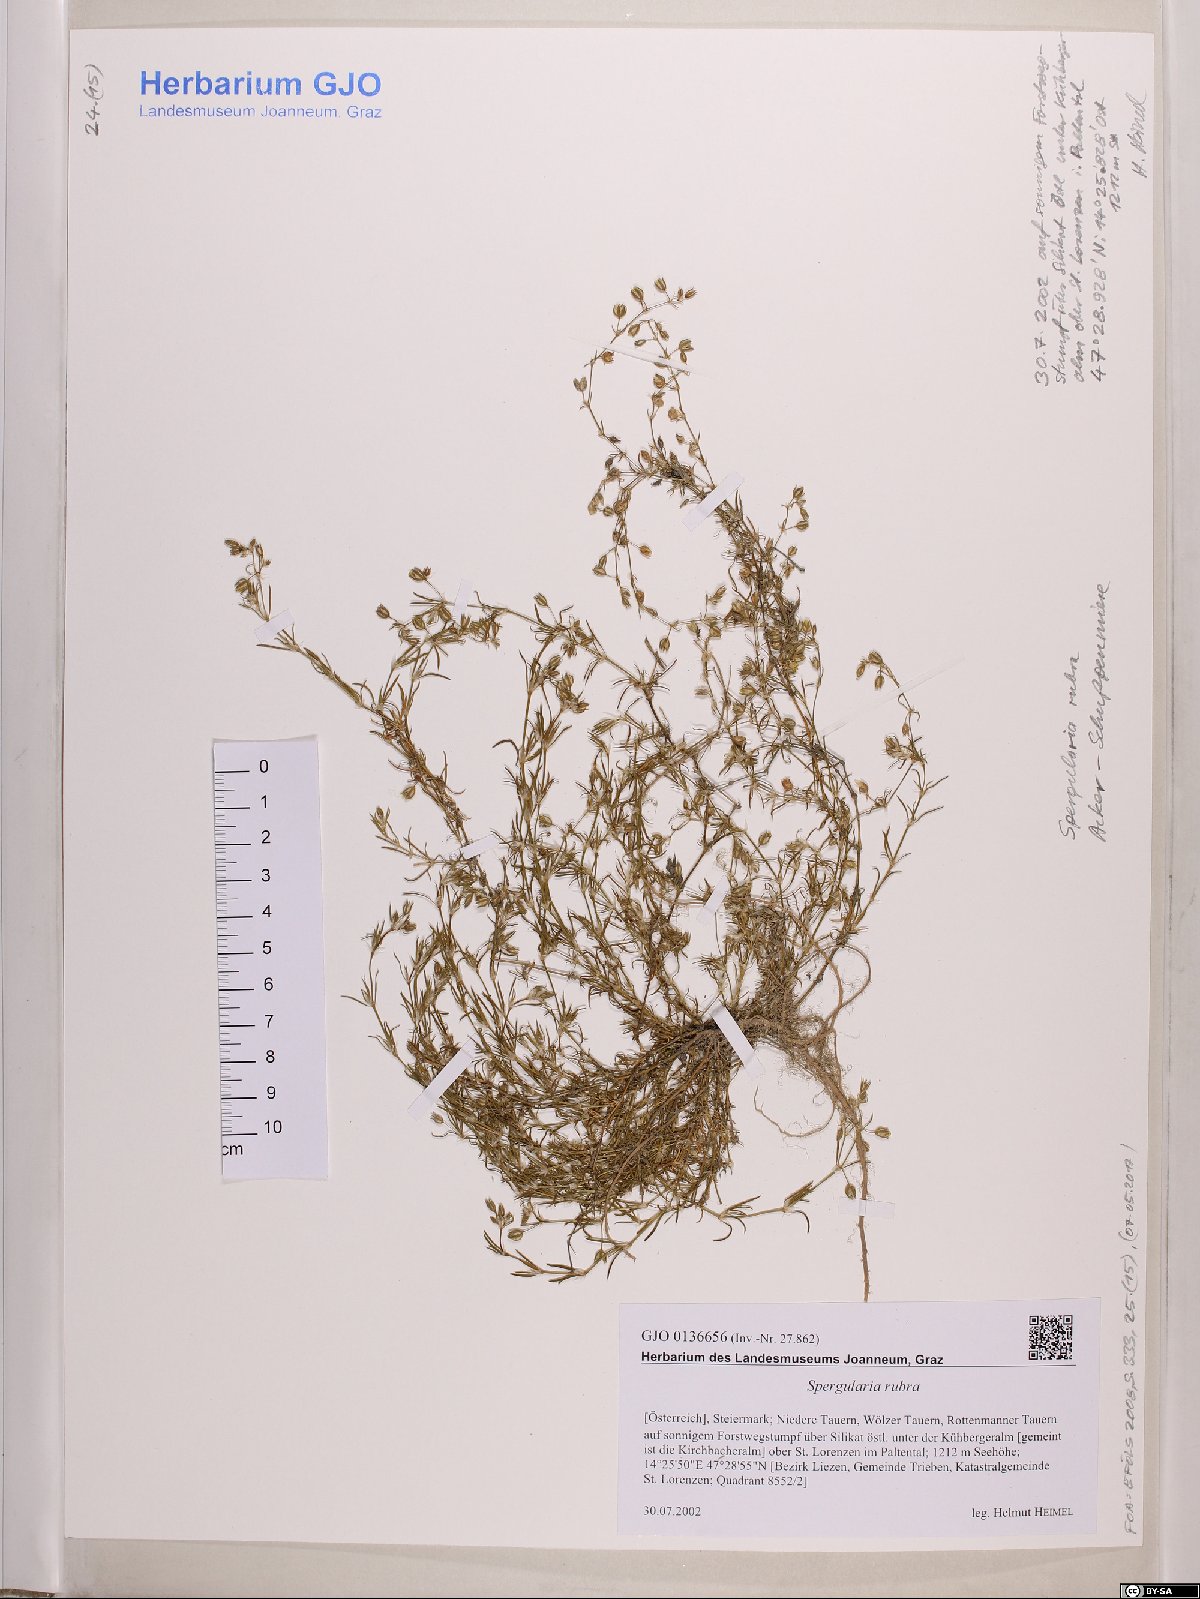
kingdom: Plantae
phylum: Tracheophyta
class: Magnoliopsida
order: Caryophyllales
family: Caryophyllaceae
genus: Spergularia
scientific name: Spergularia rubra
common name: Red sand-spurrey
